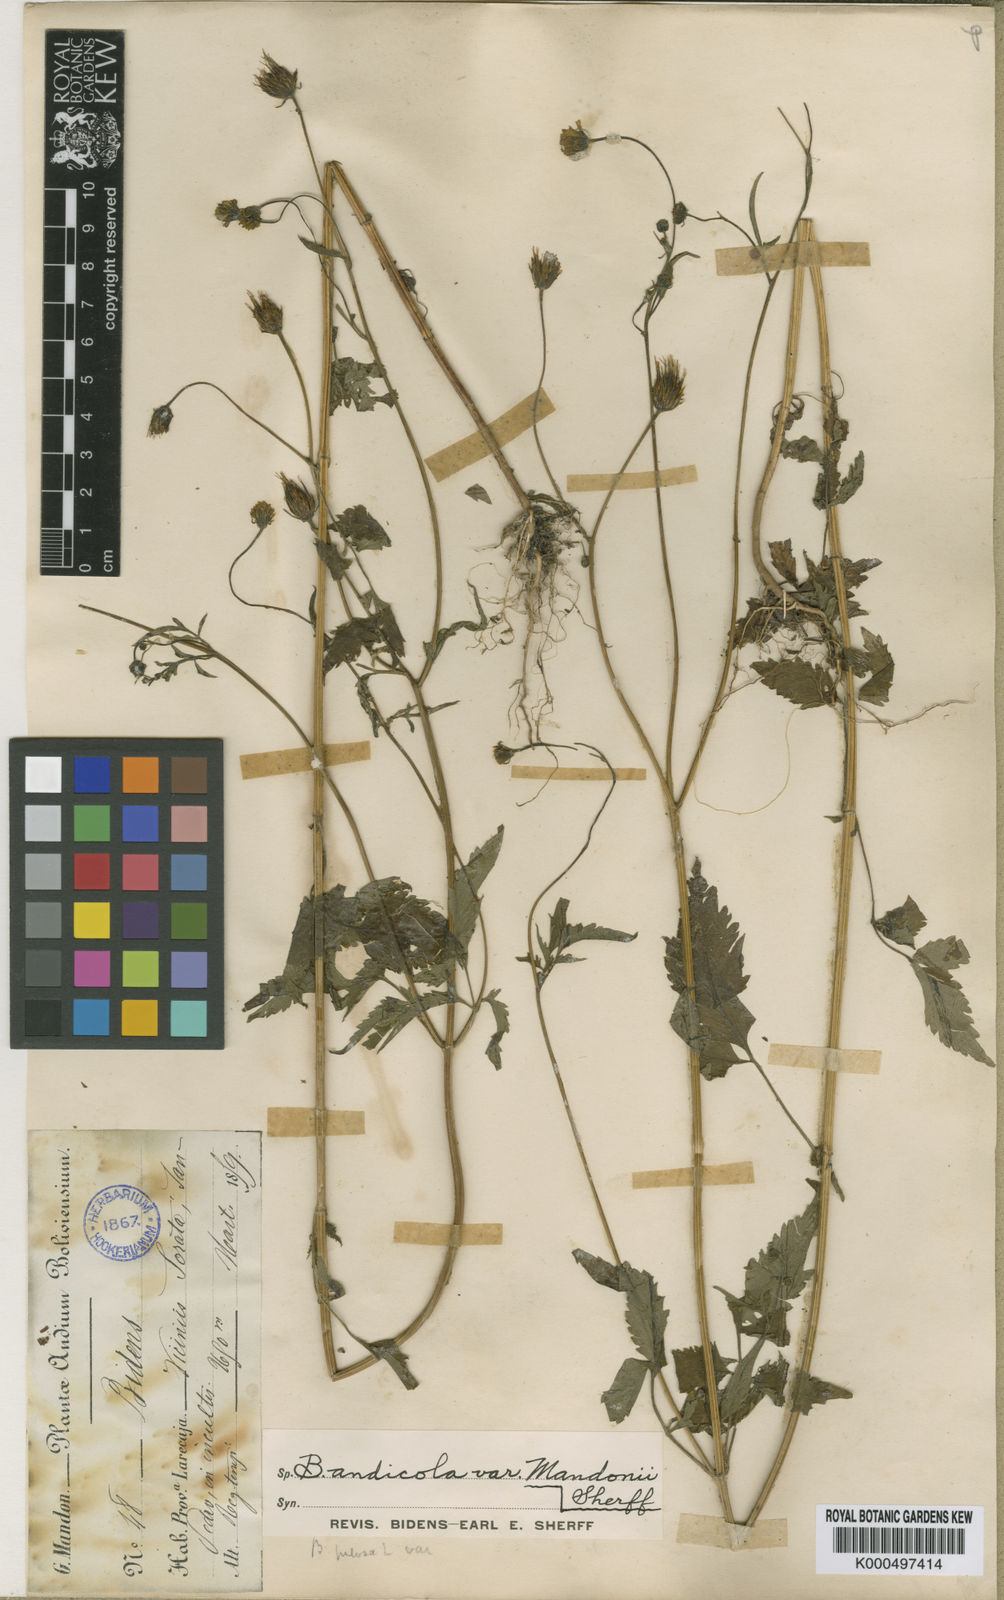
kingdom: Plantae
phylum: Tracheophyta
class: Magnoliopsida
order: Asterales
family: Asteraceae
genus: Bidens
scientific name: Bidens andicola
